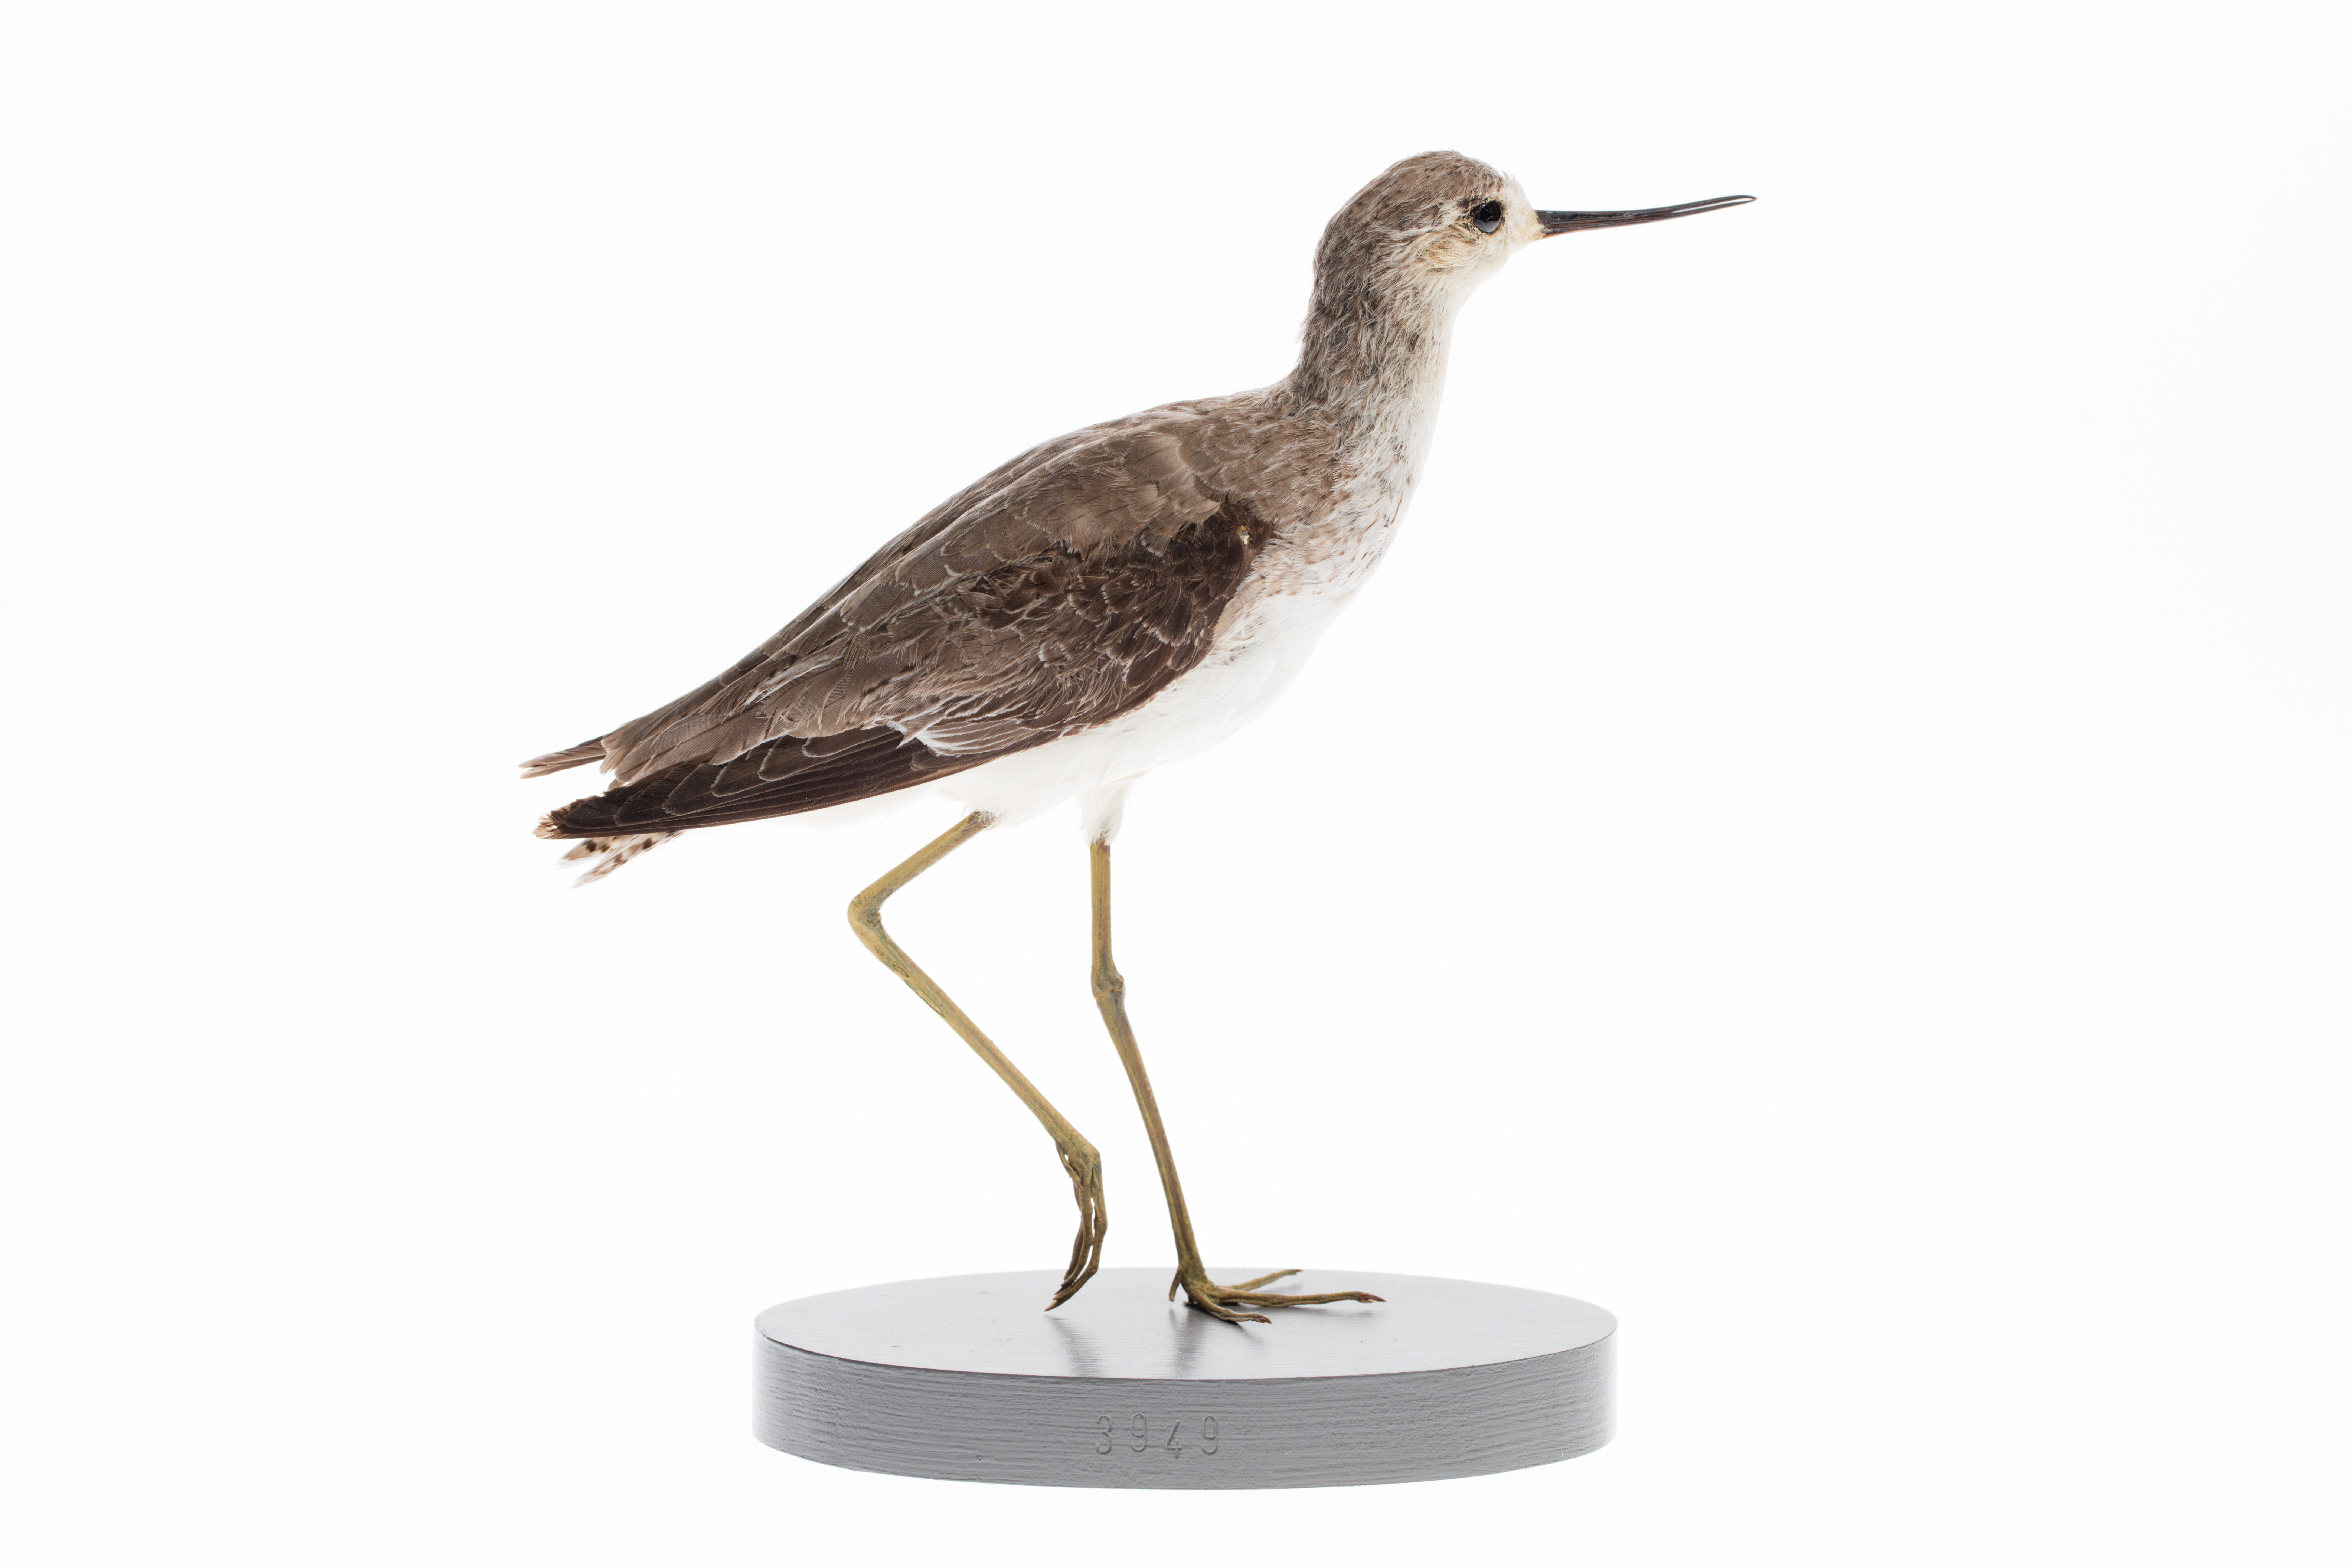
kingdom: Animalia
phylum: Chordata
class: Aves
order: Charadriiformes
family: Scolopacidae
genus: Tringa
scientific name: Tringa stagnatilis
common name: Marsh sandpiper
